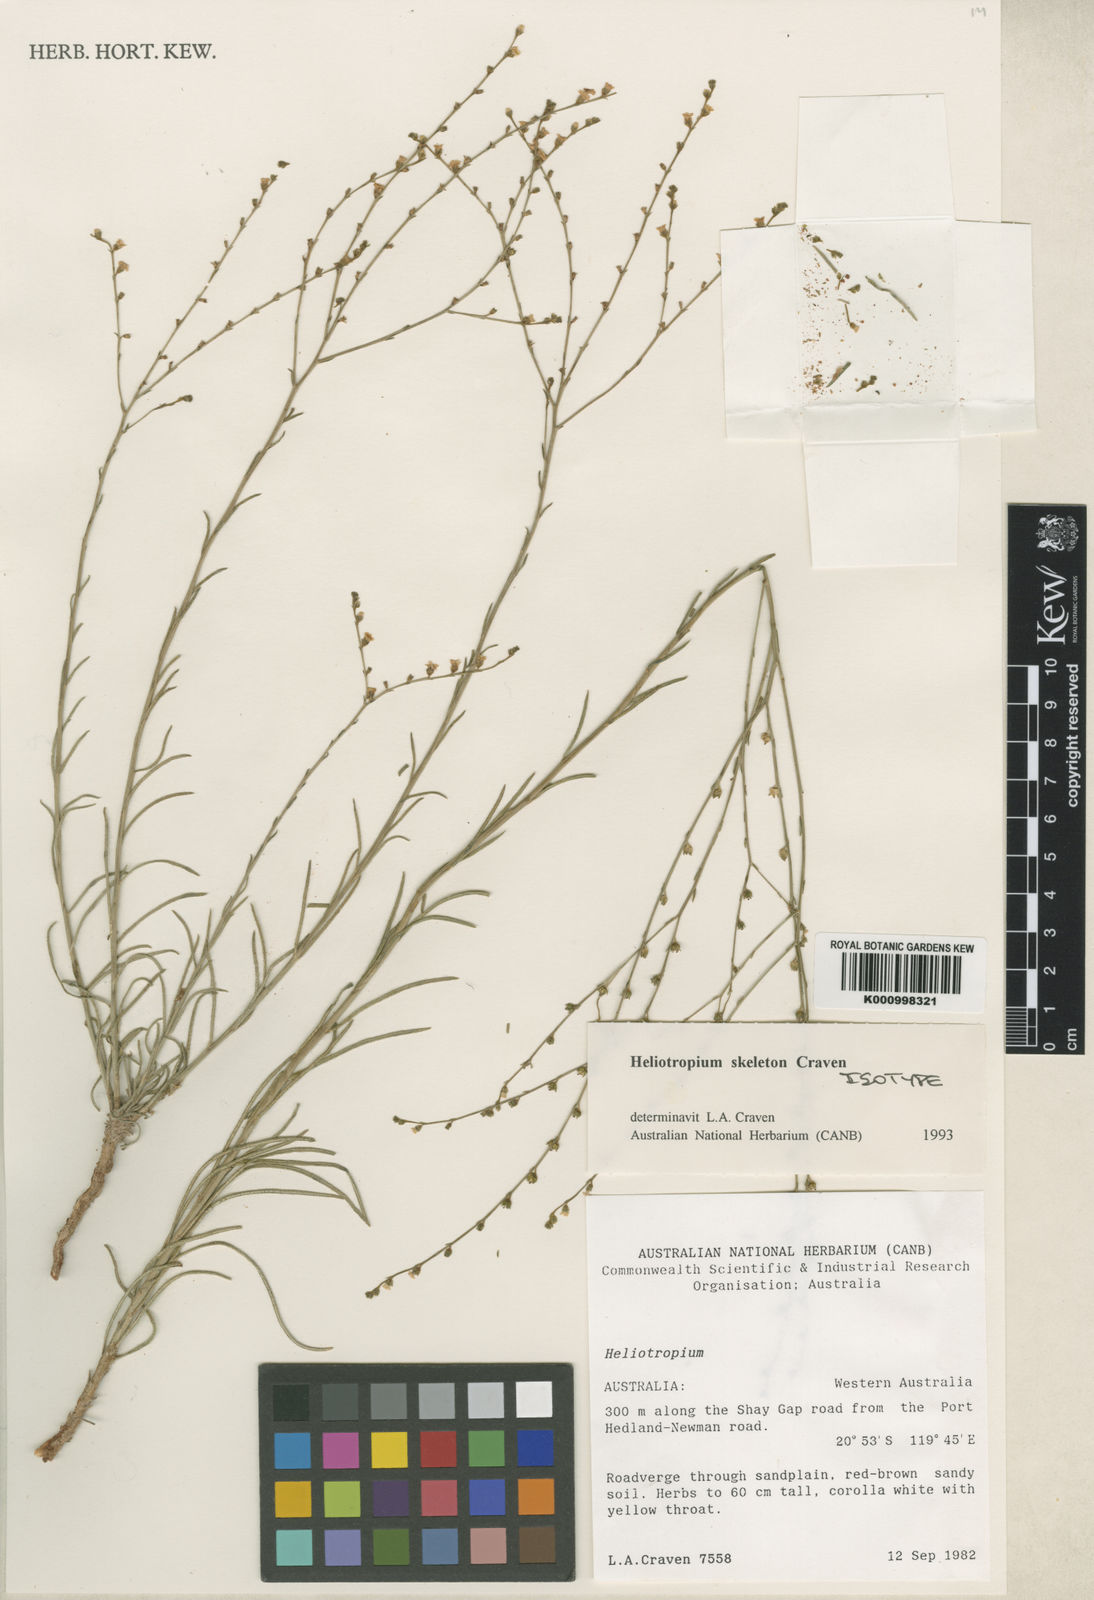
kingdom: Plantae
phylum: Tracheophyta
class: Magnoliopsida
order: Boraginales
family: Heliotropiaceae
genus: Euploca
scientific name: Euploca skeleton
